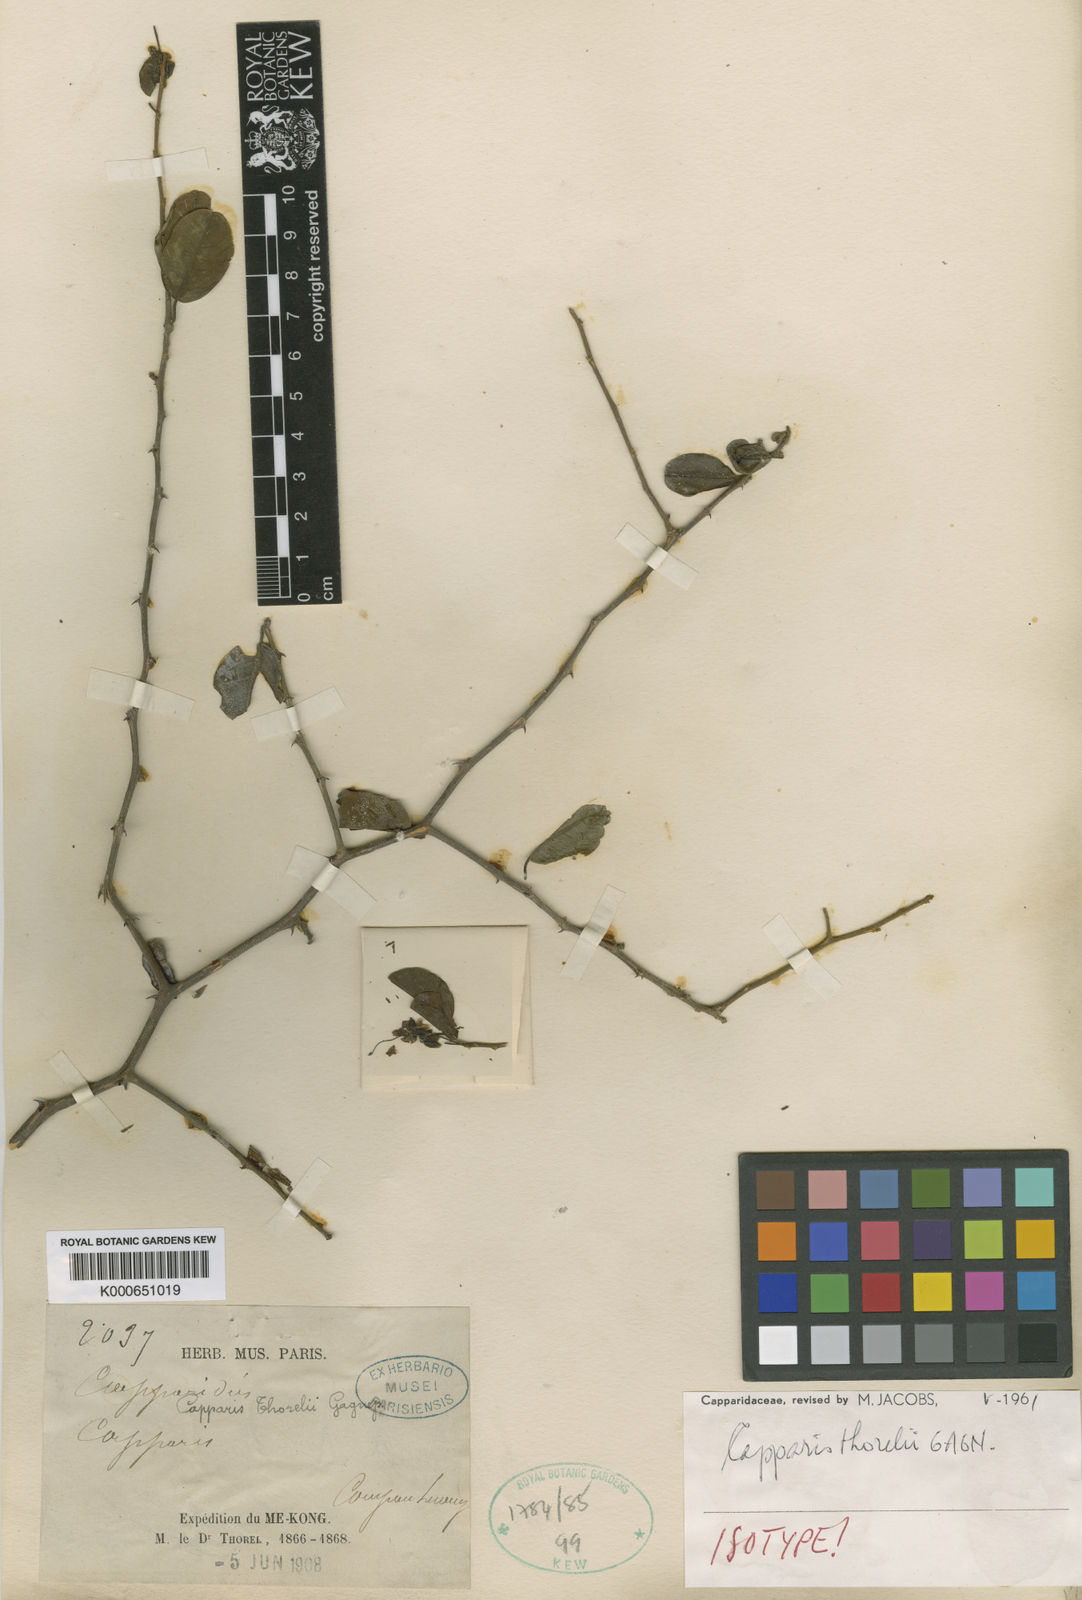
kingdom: Plantae
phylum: Tracheophyta
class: Magnoliopsida
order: Brassicales
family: Capparaceae
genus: Capparis
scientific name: Capparis thorelii
